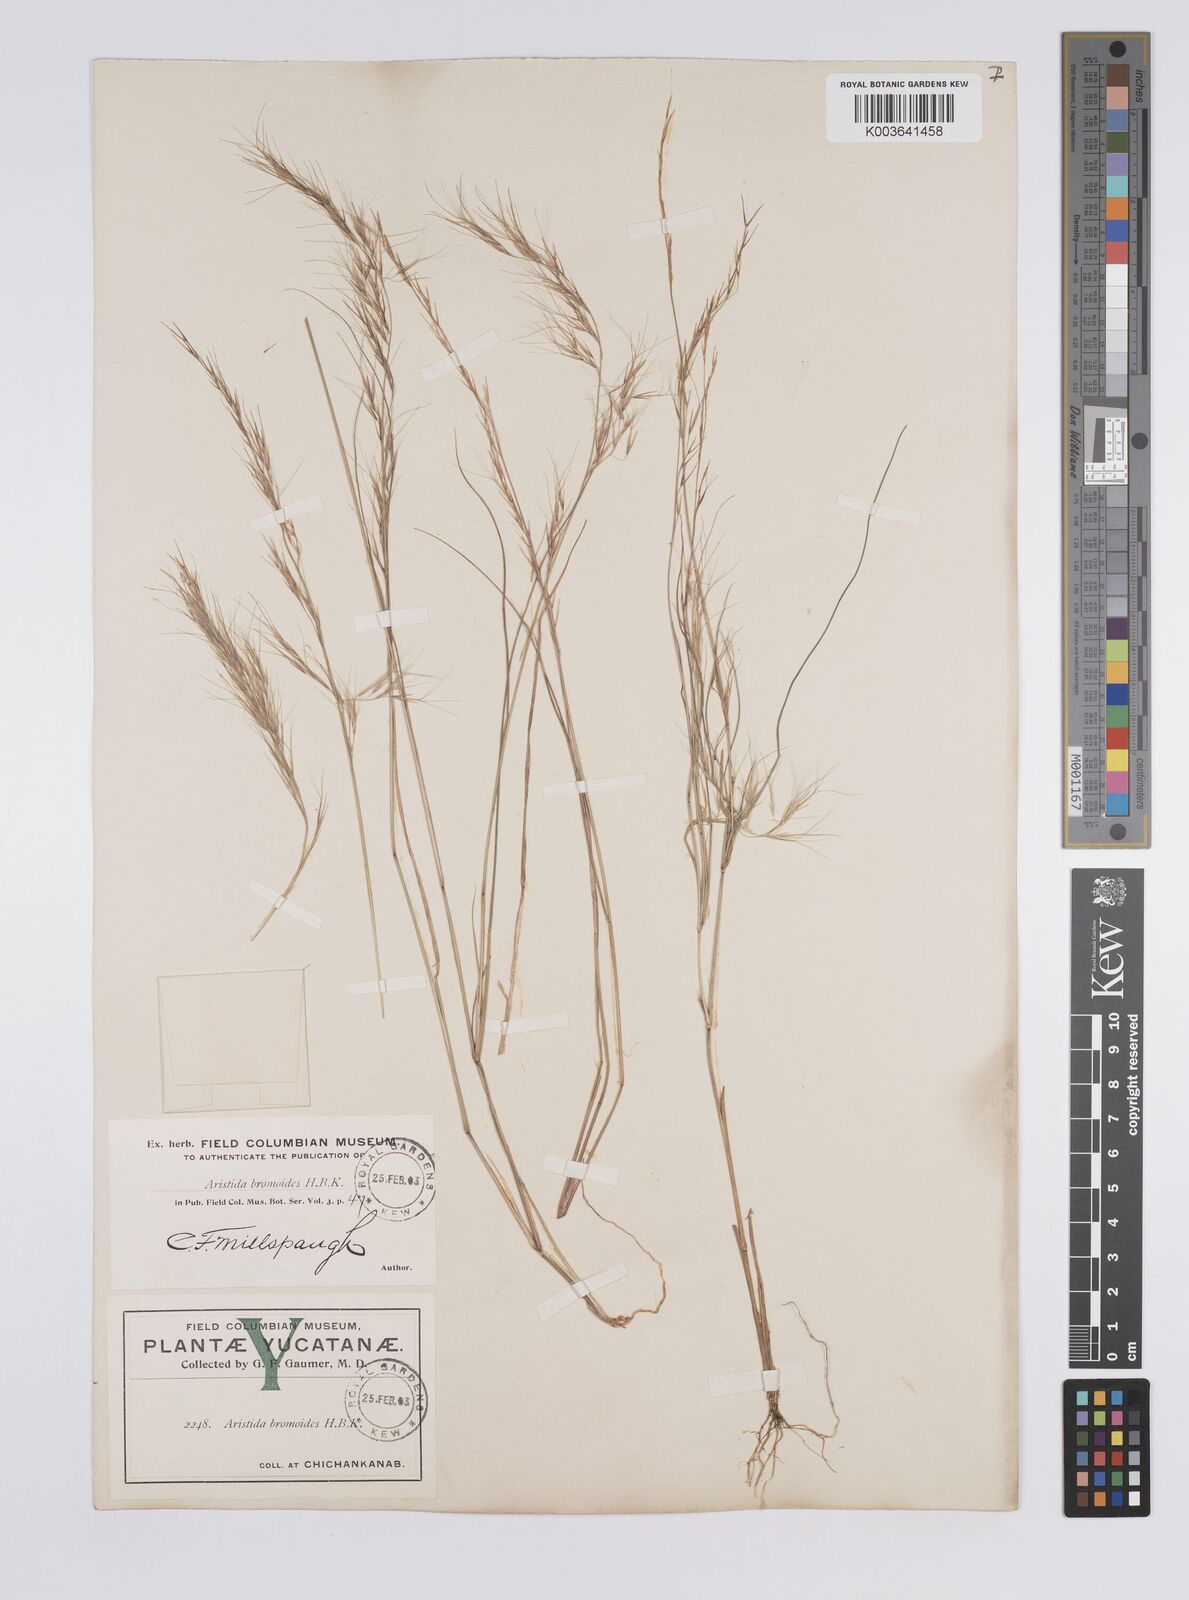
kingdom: Plantae
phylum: Tracheophyta
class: Liliopsida
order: Poales
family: Poaceae
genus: Aristida
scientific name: Aristida adscensionis
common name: Sixweeks threeawn
